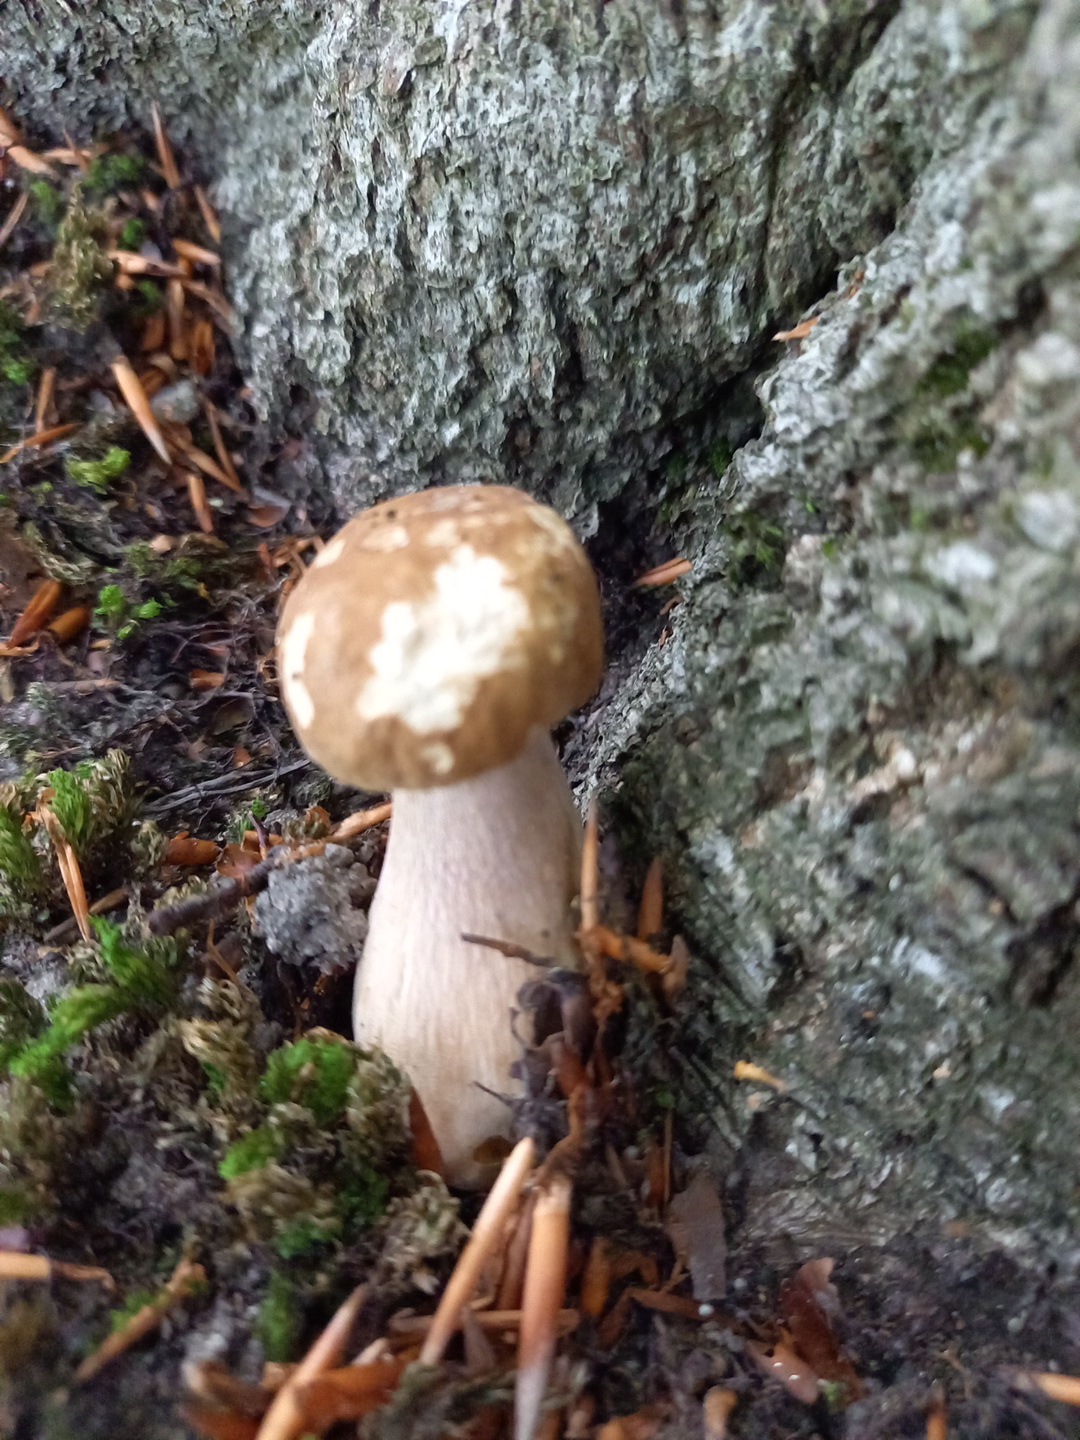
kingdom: Fungi
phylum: Basidiomycota
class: Agaricomycetes
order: Boletales
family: Boletaceae
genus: Boletus
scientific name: Boletus reticulatus
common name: sommer-rørhat
